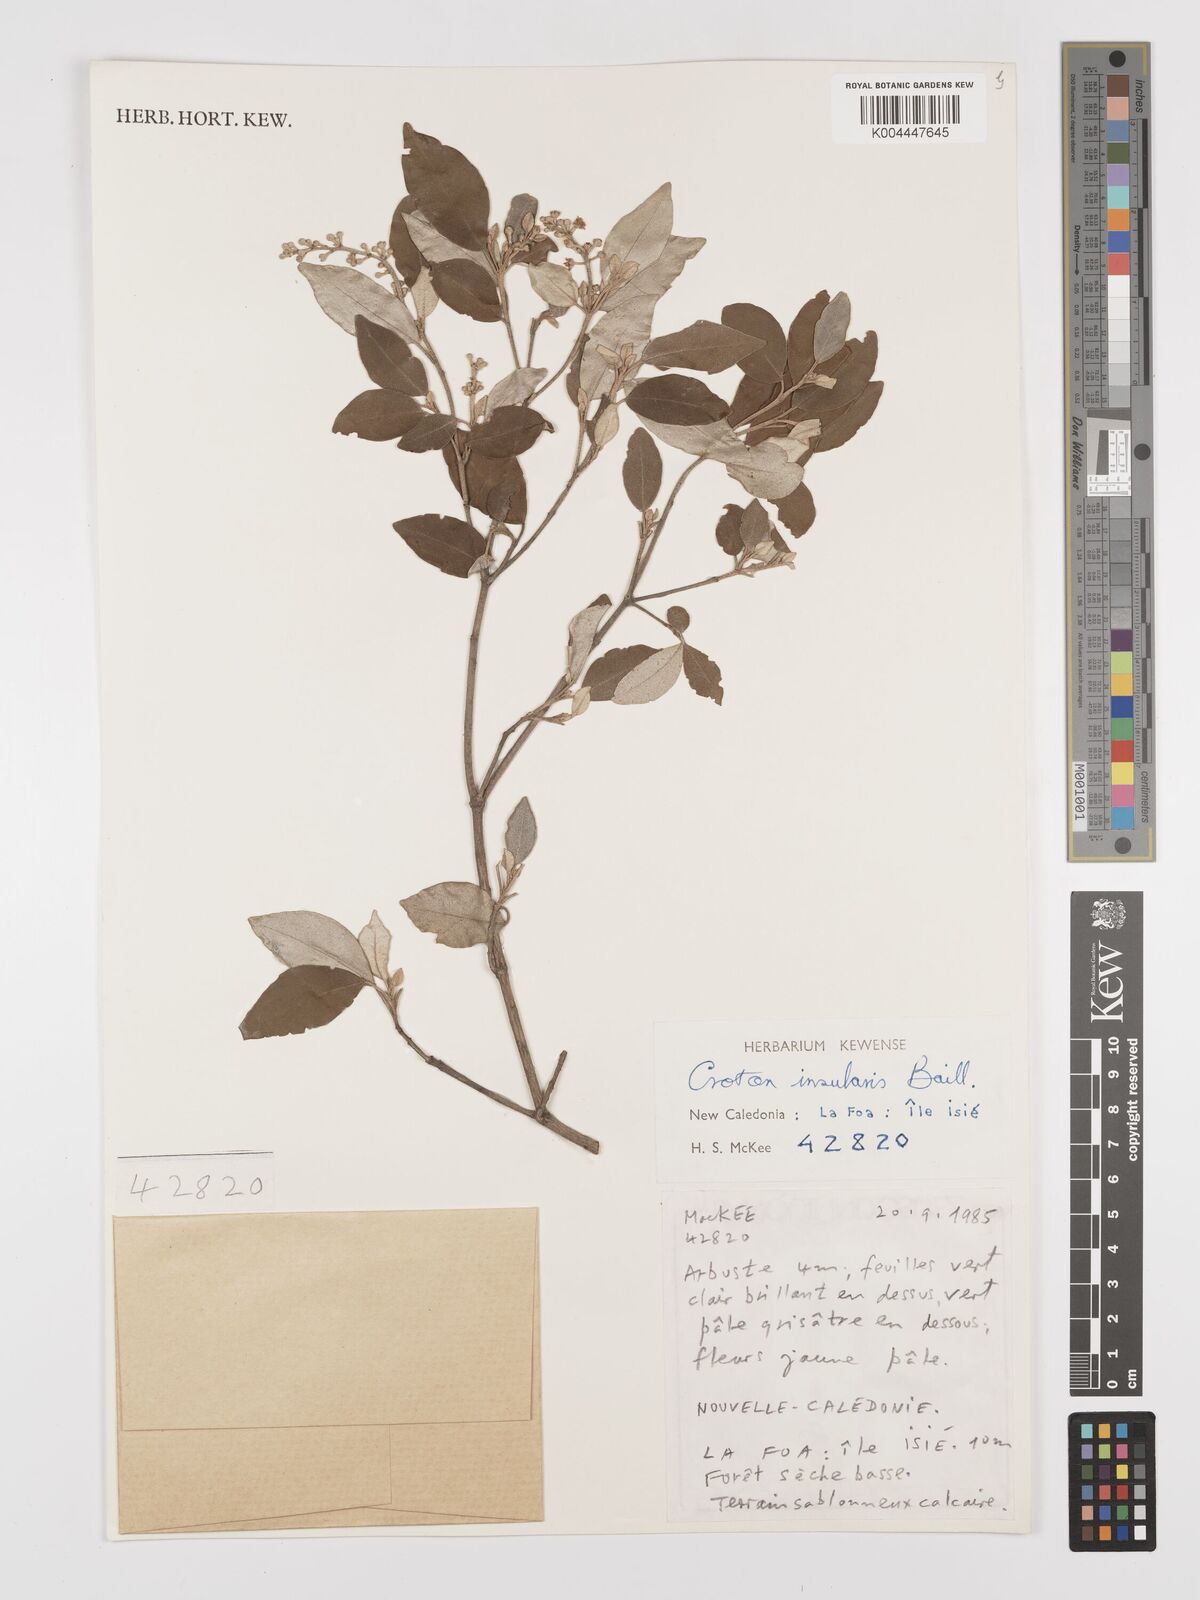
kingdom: Plantae
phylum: Tracheophyta
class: Magnoliopsida
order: Malpighiales
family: Euphorbiaceae
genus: Croton
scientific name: Croton insularis
